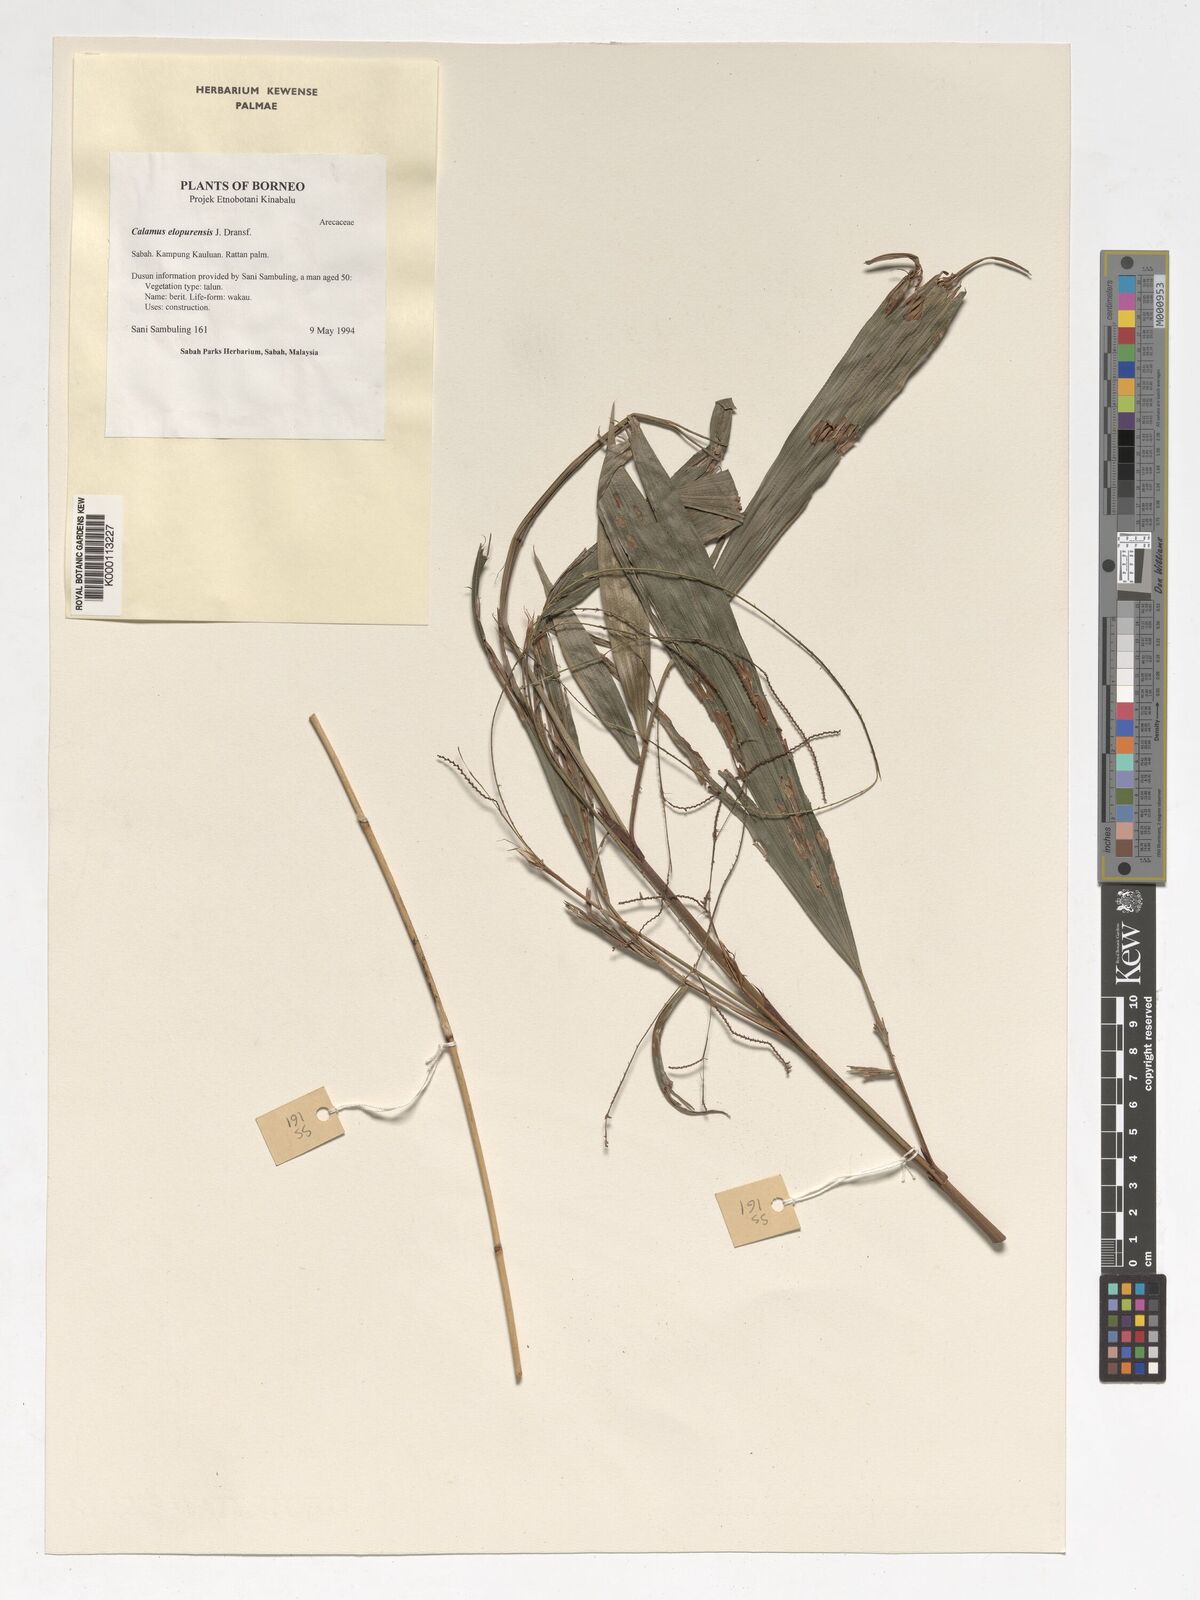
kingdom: Plantae
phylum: Tracheophyta
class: Liliopsida
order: Arecales
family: Arecaceae
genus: Calamus
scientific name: Calamus javensis
